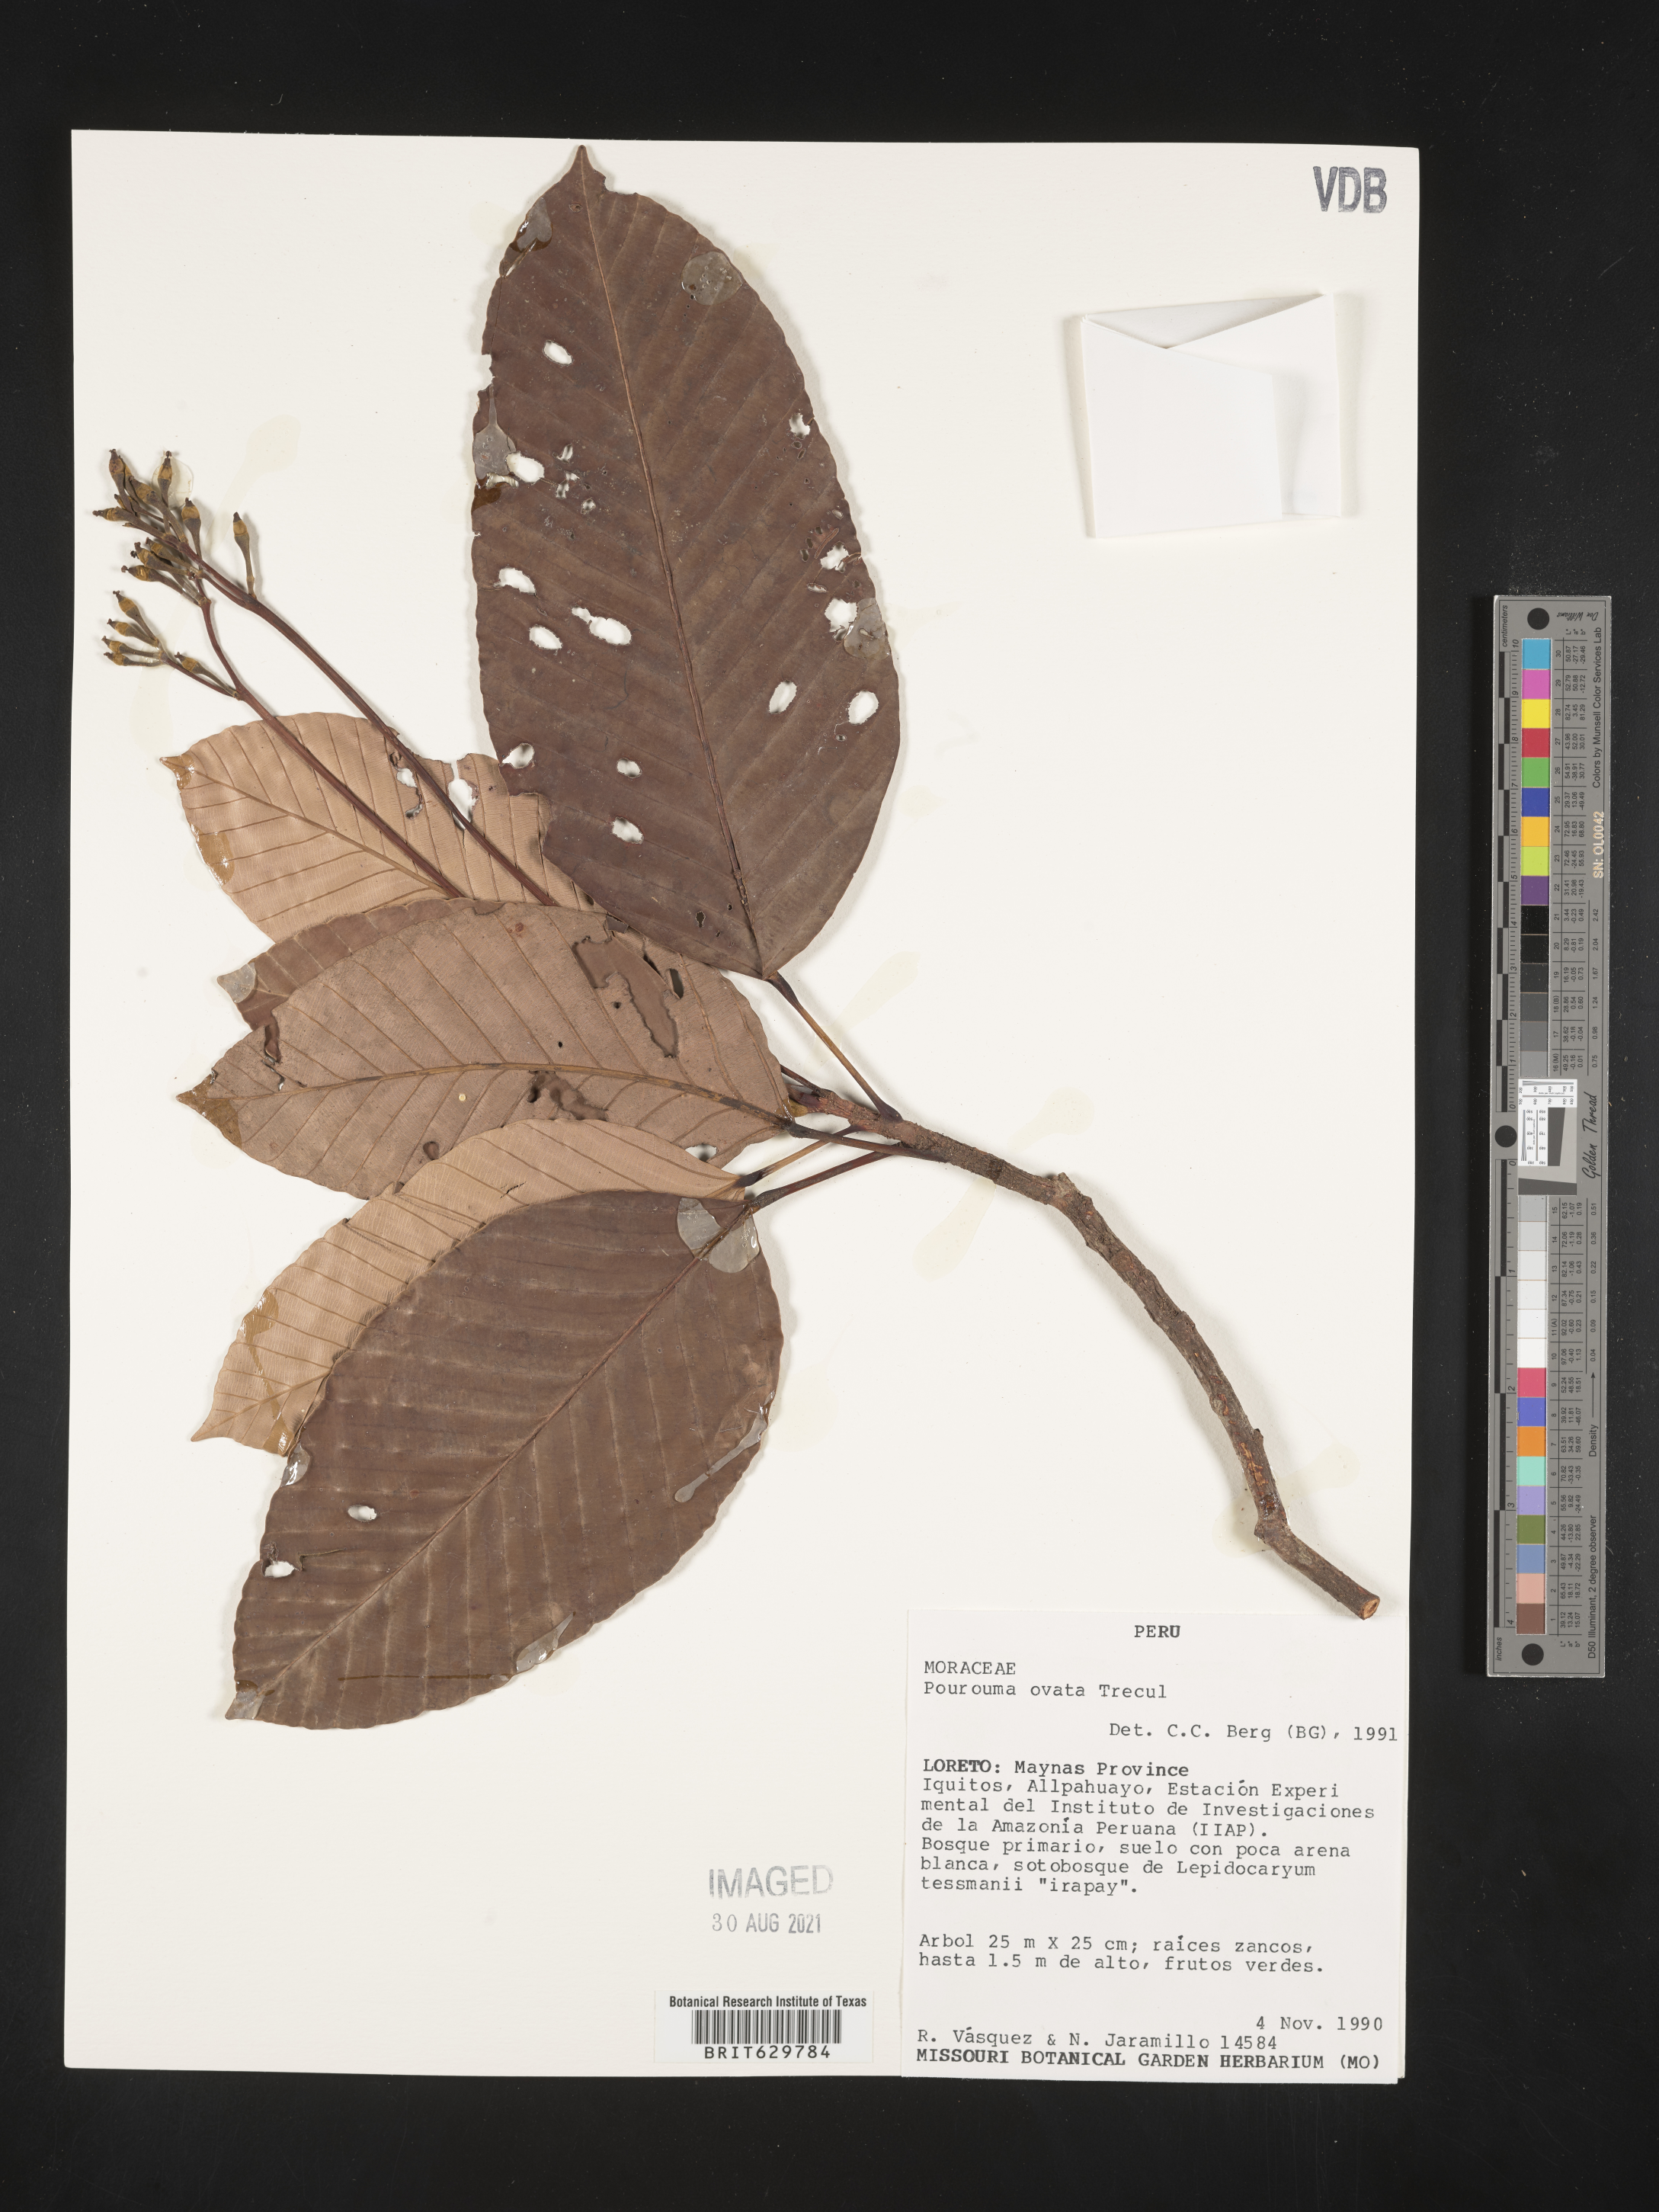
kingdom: Plantae
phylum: Tracheophyta
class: Magnoliopsida
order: Rosales
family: Urticaceae
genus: Pourouma
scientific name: Pourouma
